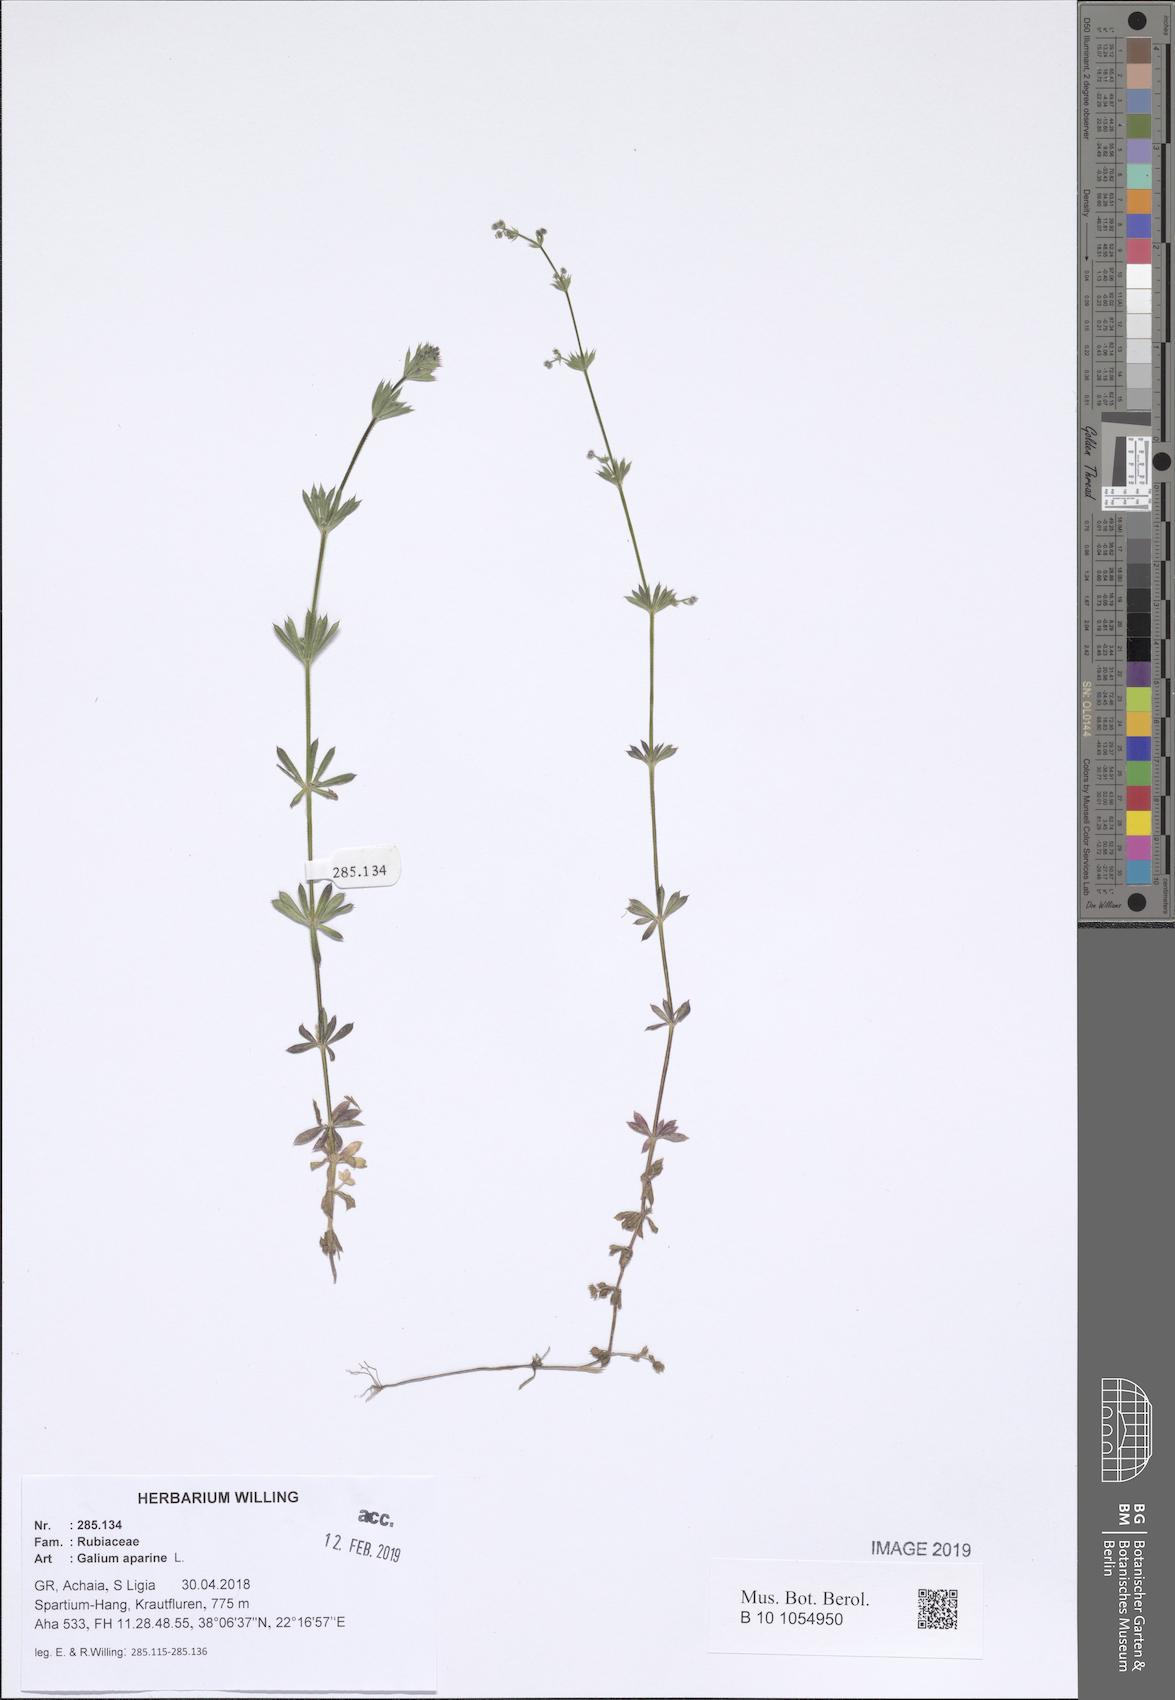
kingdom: Plantae
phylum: Tracheophyta
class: Magnoliopsida
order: Gentianales
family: Rubiaceae
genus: Galium
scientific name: Galium aparine
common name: Cleavers
